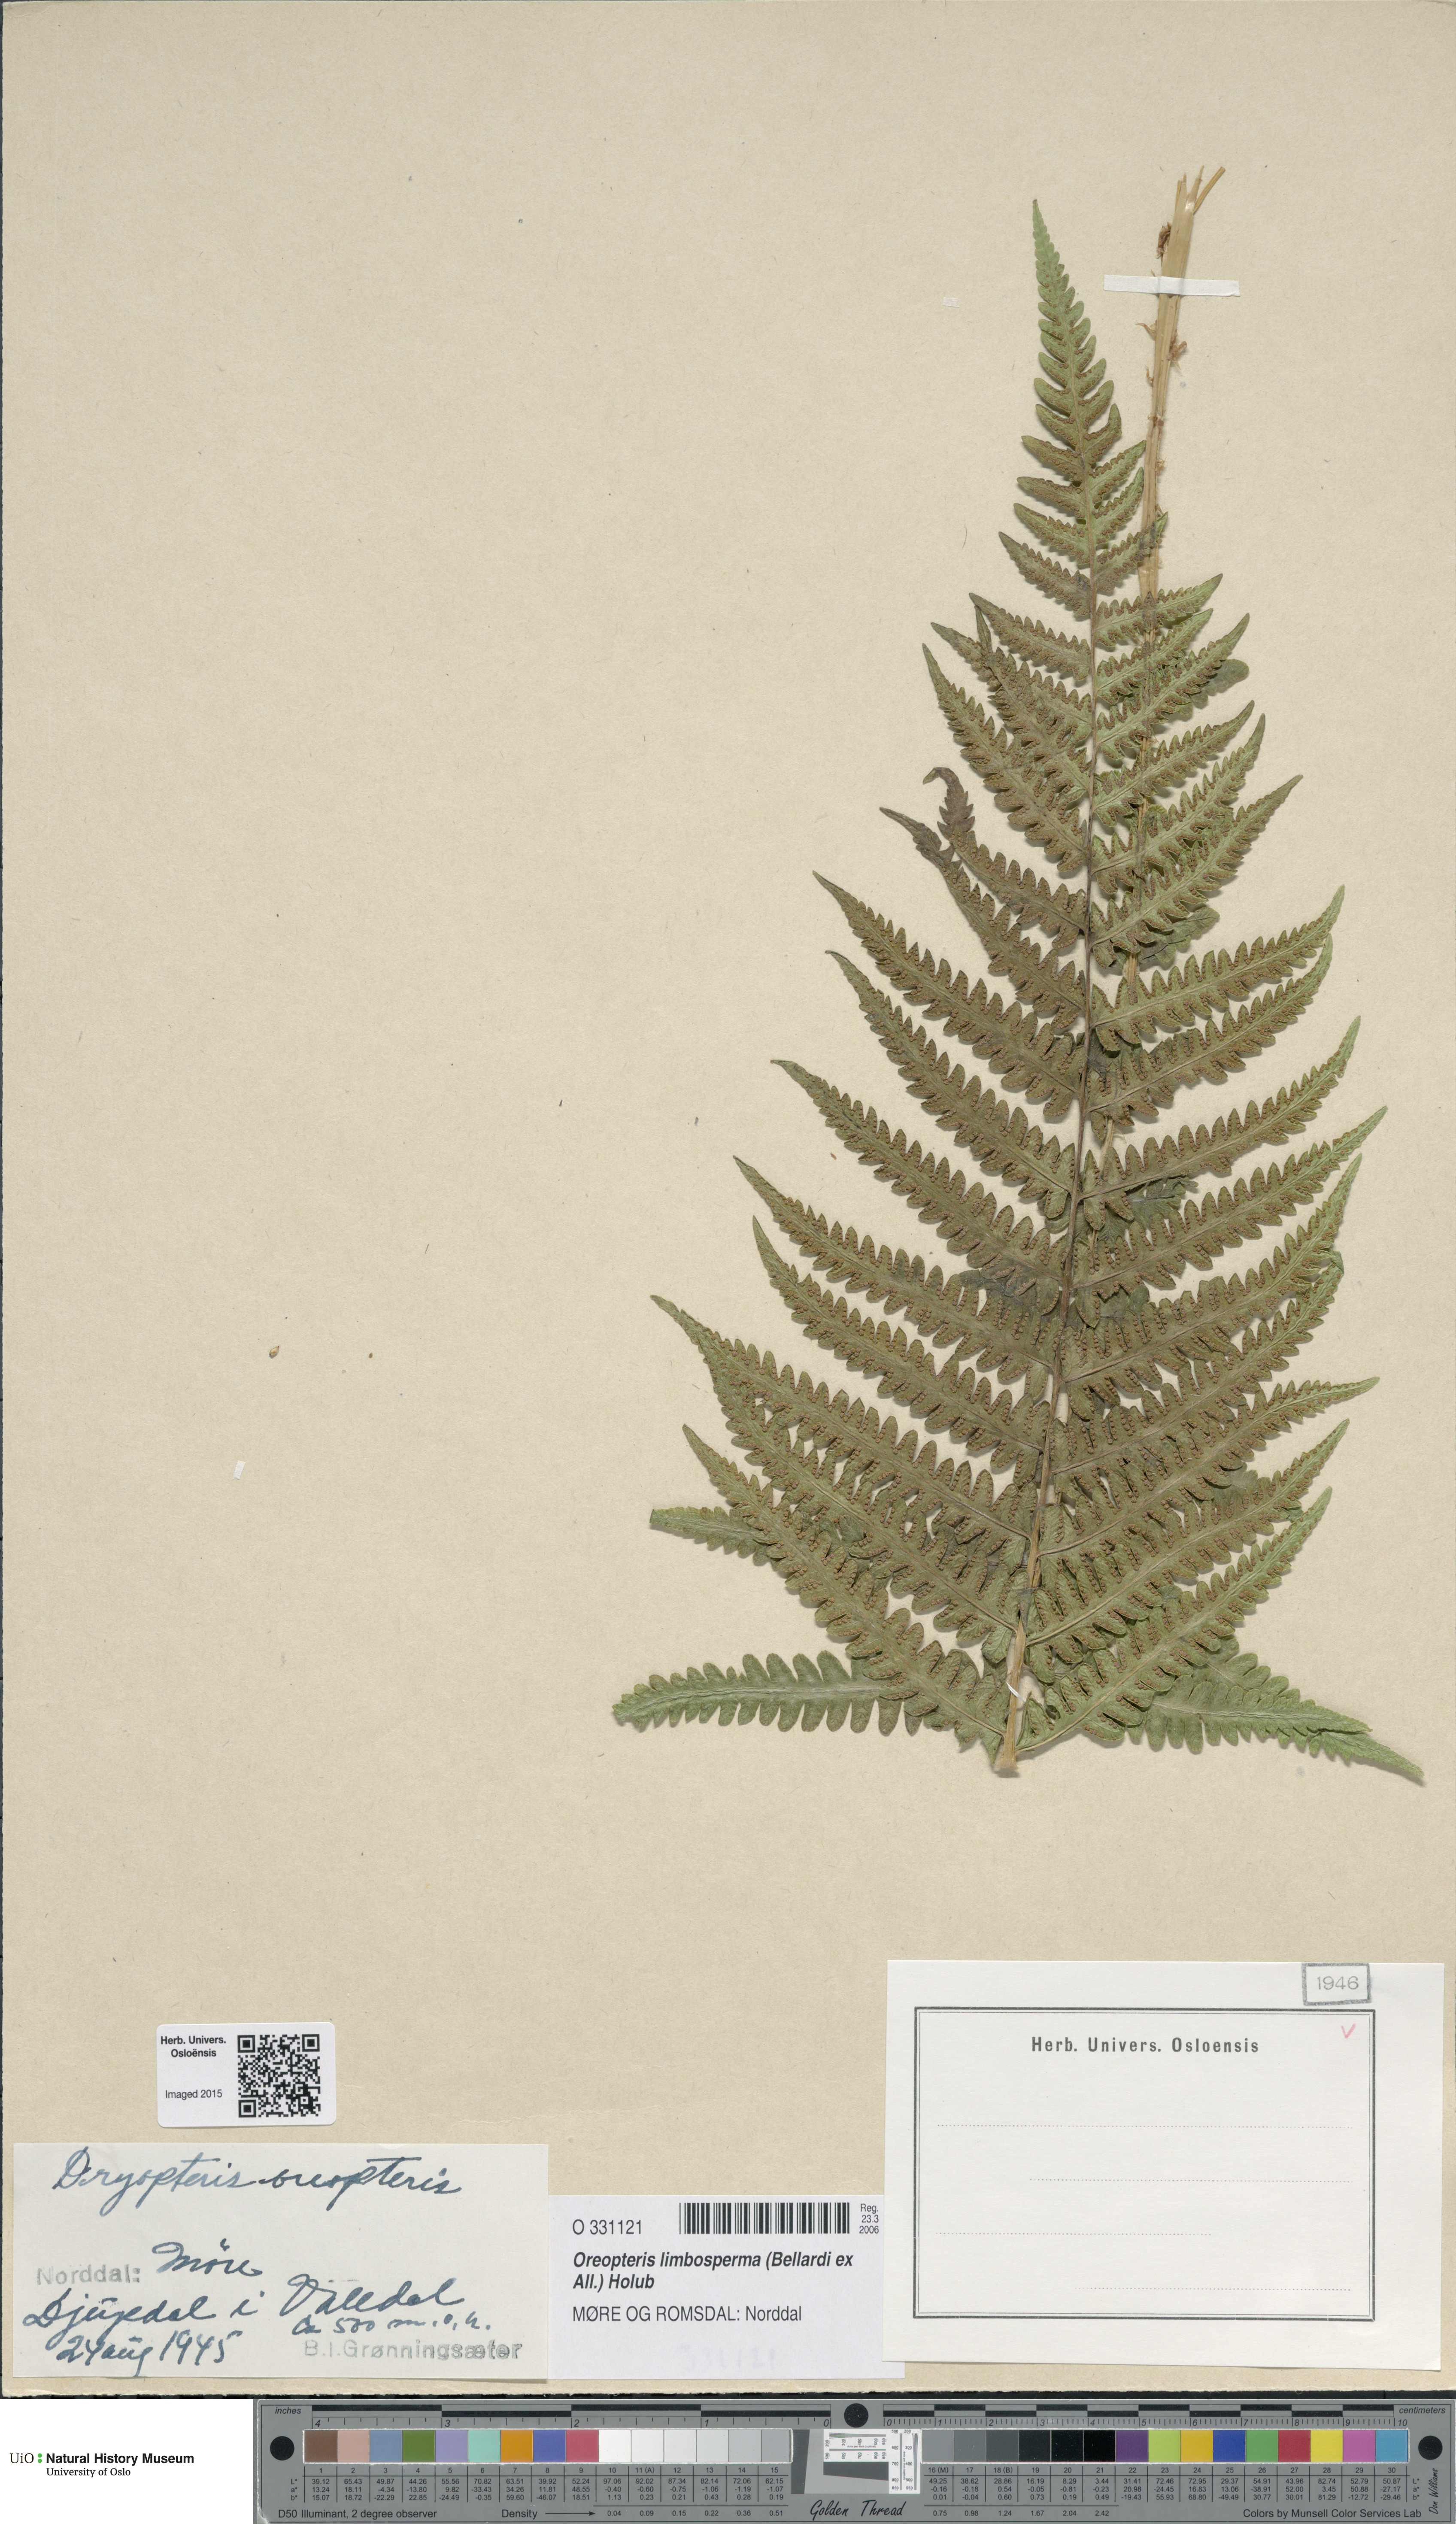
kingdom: Plantae
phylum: Tracheophyta
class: Polypodiopsida
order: Polypodiales
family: Thelypteridaceae
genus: Oreopteris
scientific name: Oreopteris limbosperma
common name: Lemon-scented fern
